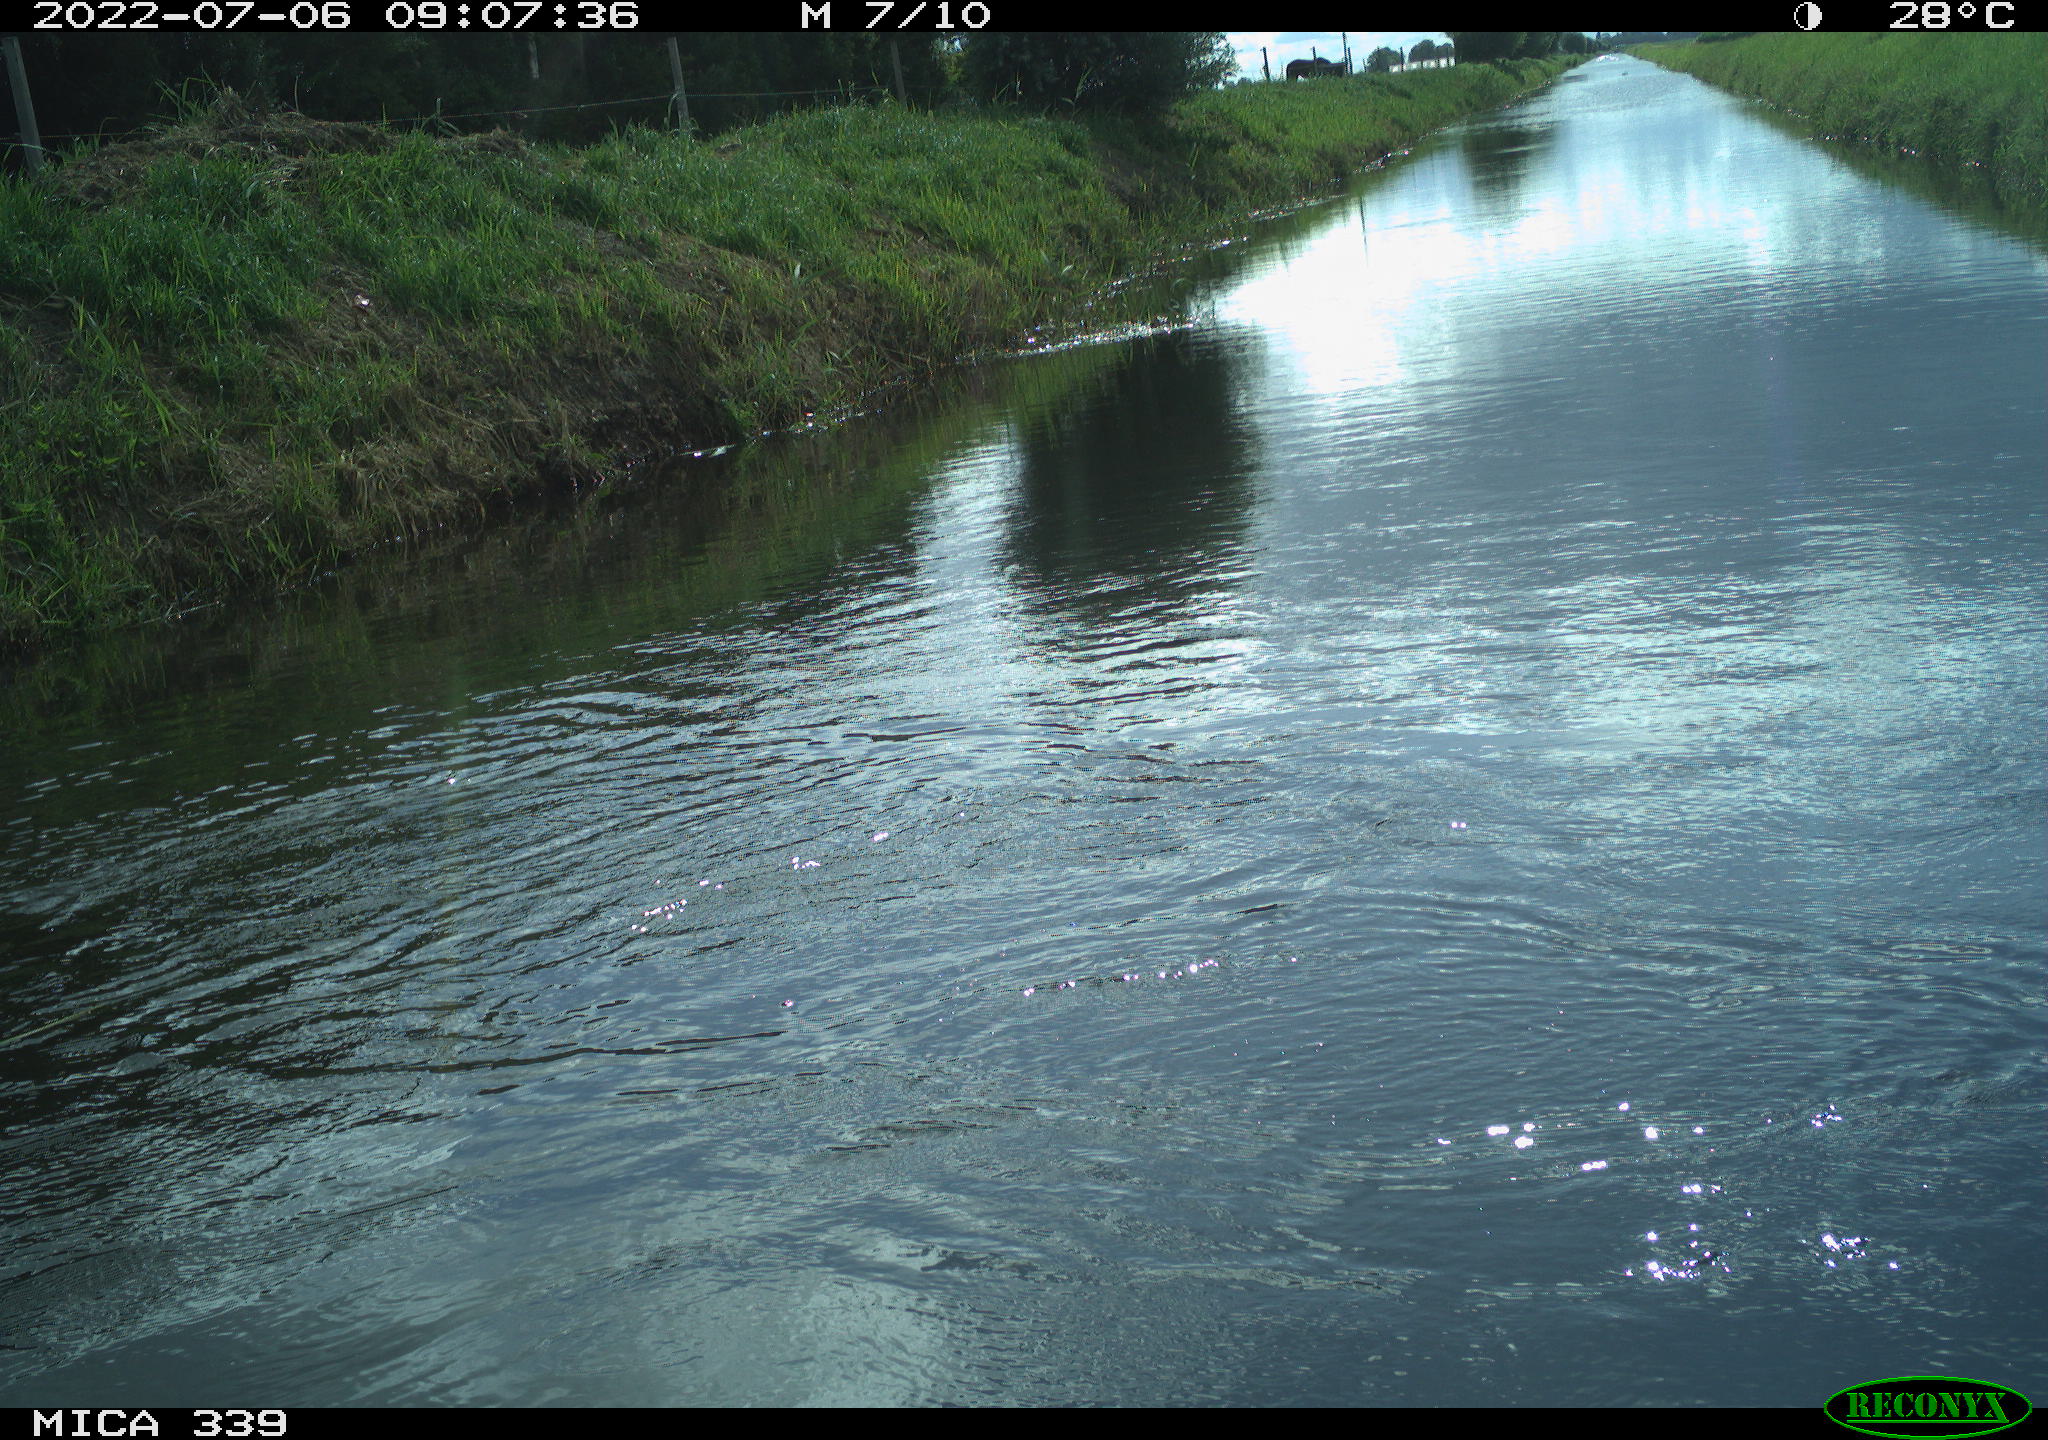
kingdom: Animalia
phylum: Chordata
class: Aves
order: Pelecaniformes
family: Ardeidae
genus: Ardea
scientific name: Ardea cinerea
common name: Grey heron
